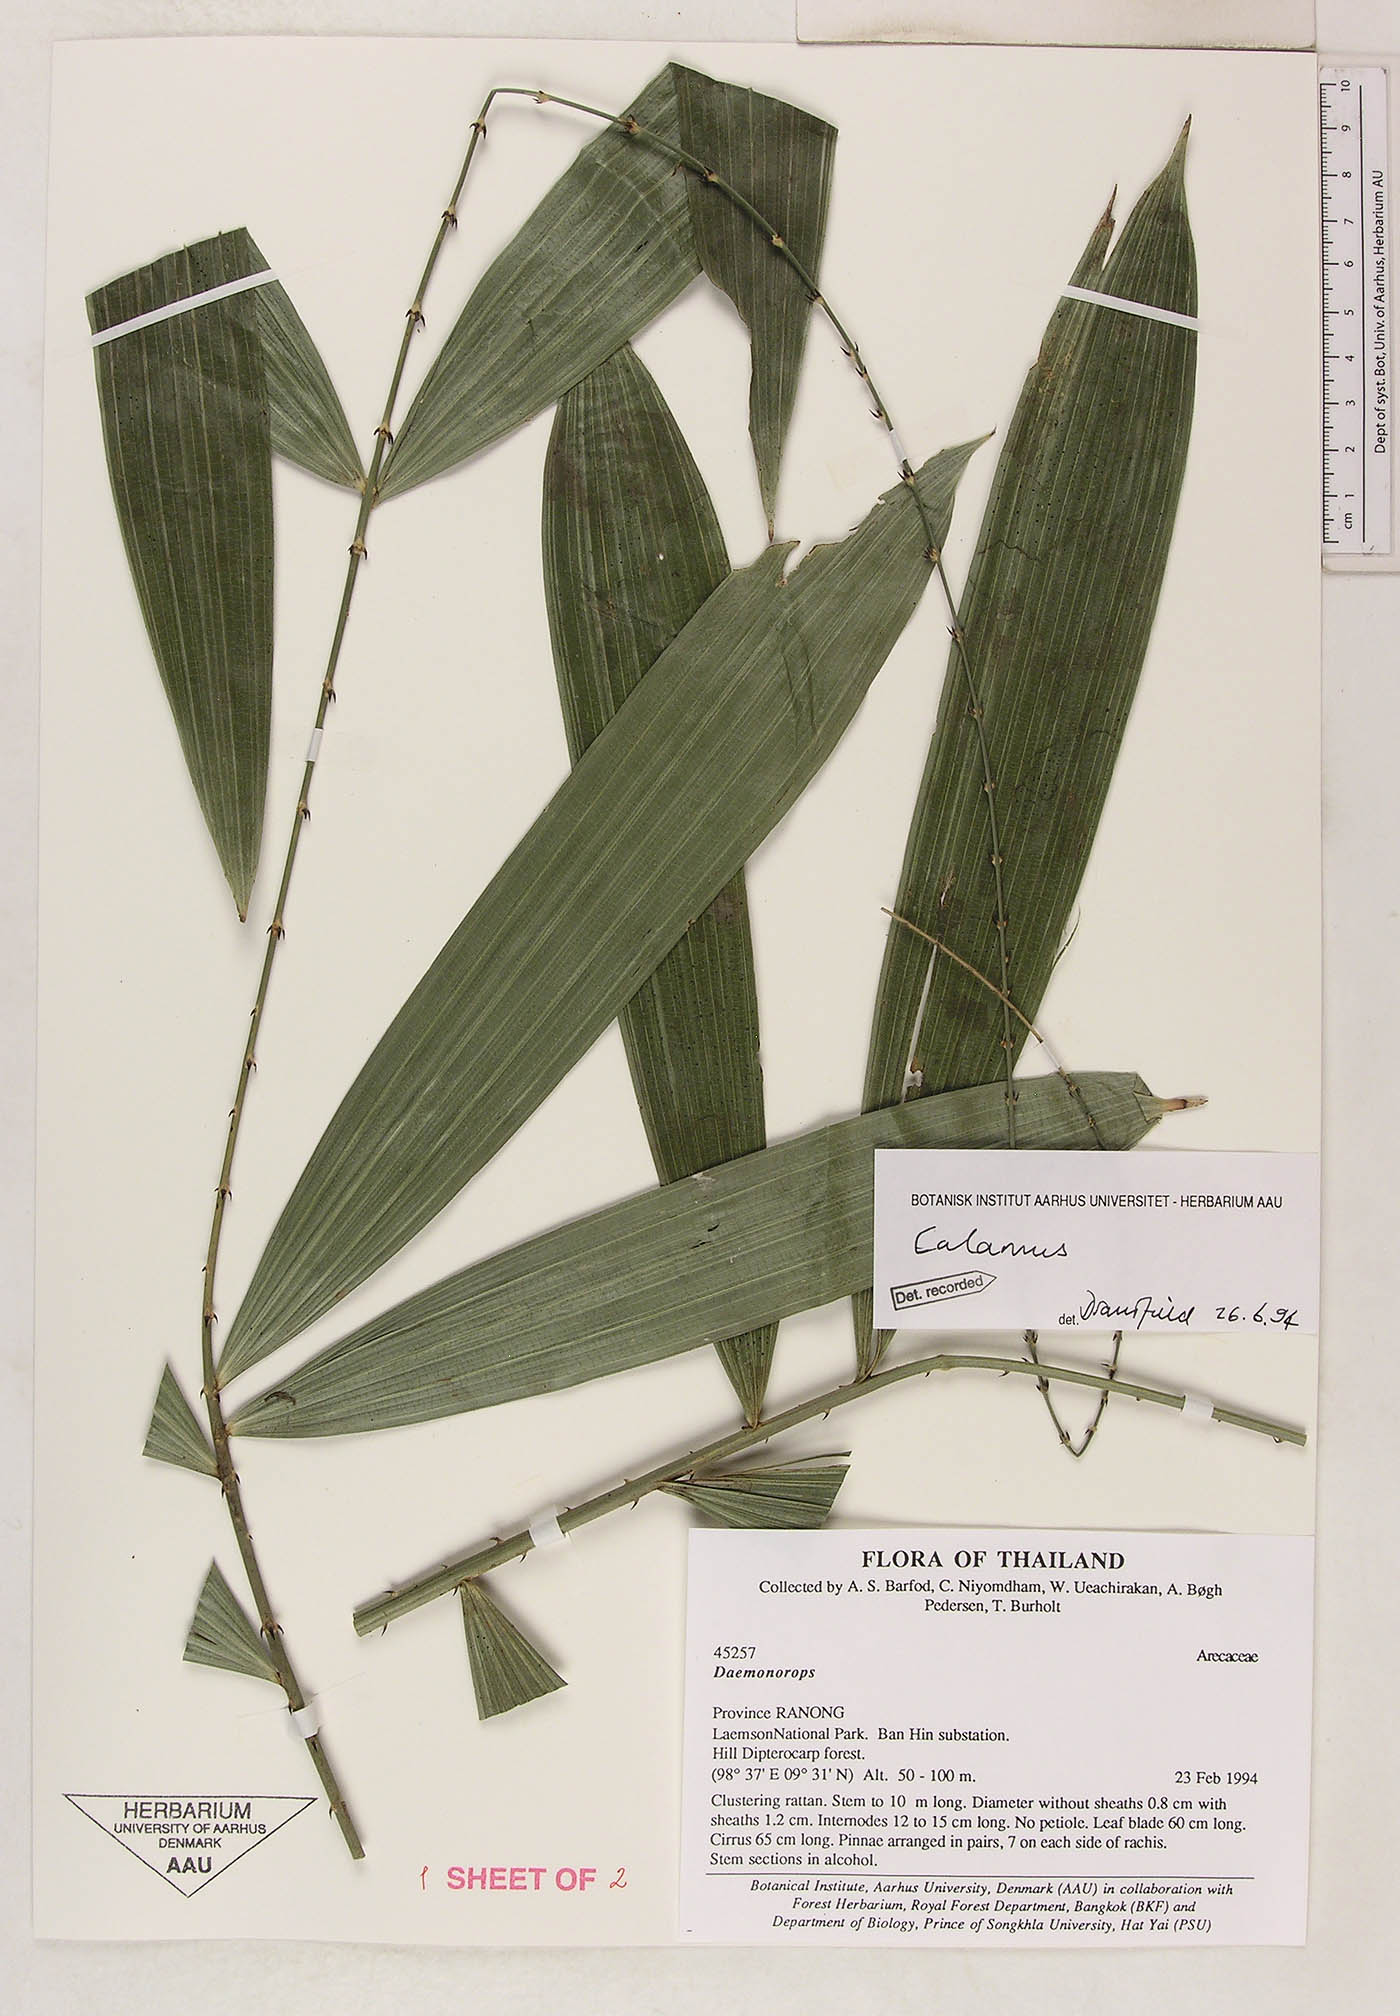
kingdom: Plantae
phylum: Tracheophyta
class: Liliopsida
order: Arecales
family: Arecaceae
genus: Calamus
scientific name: Calamus latifolius
